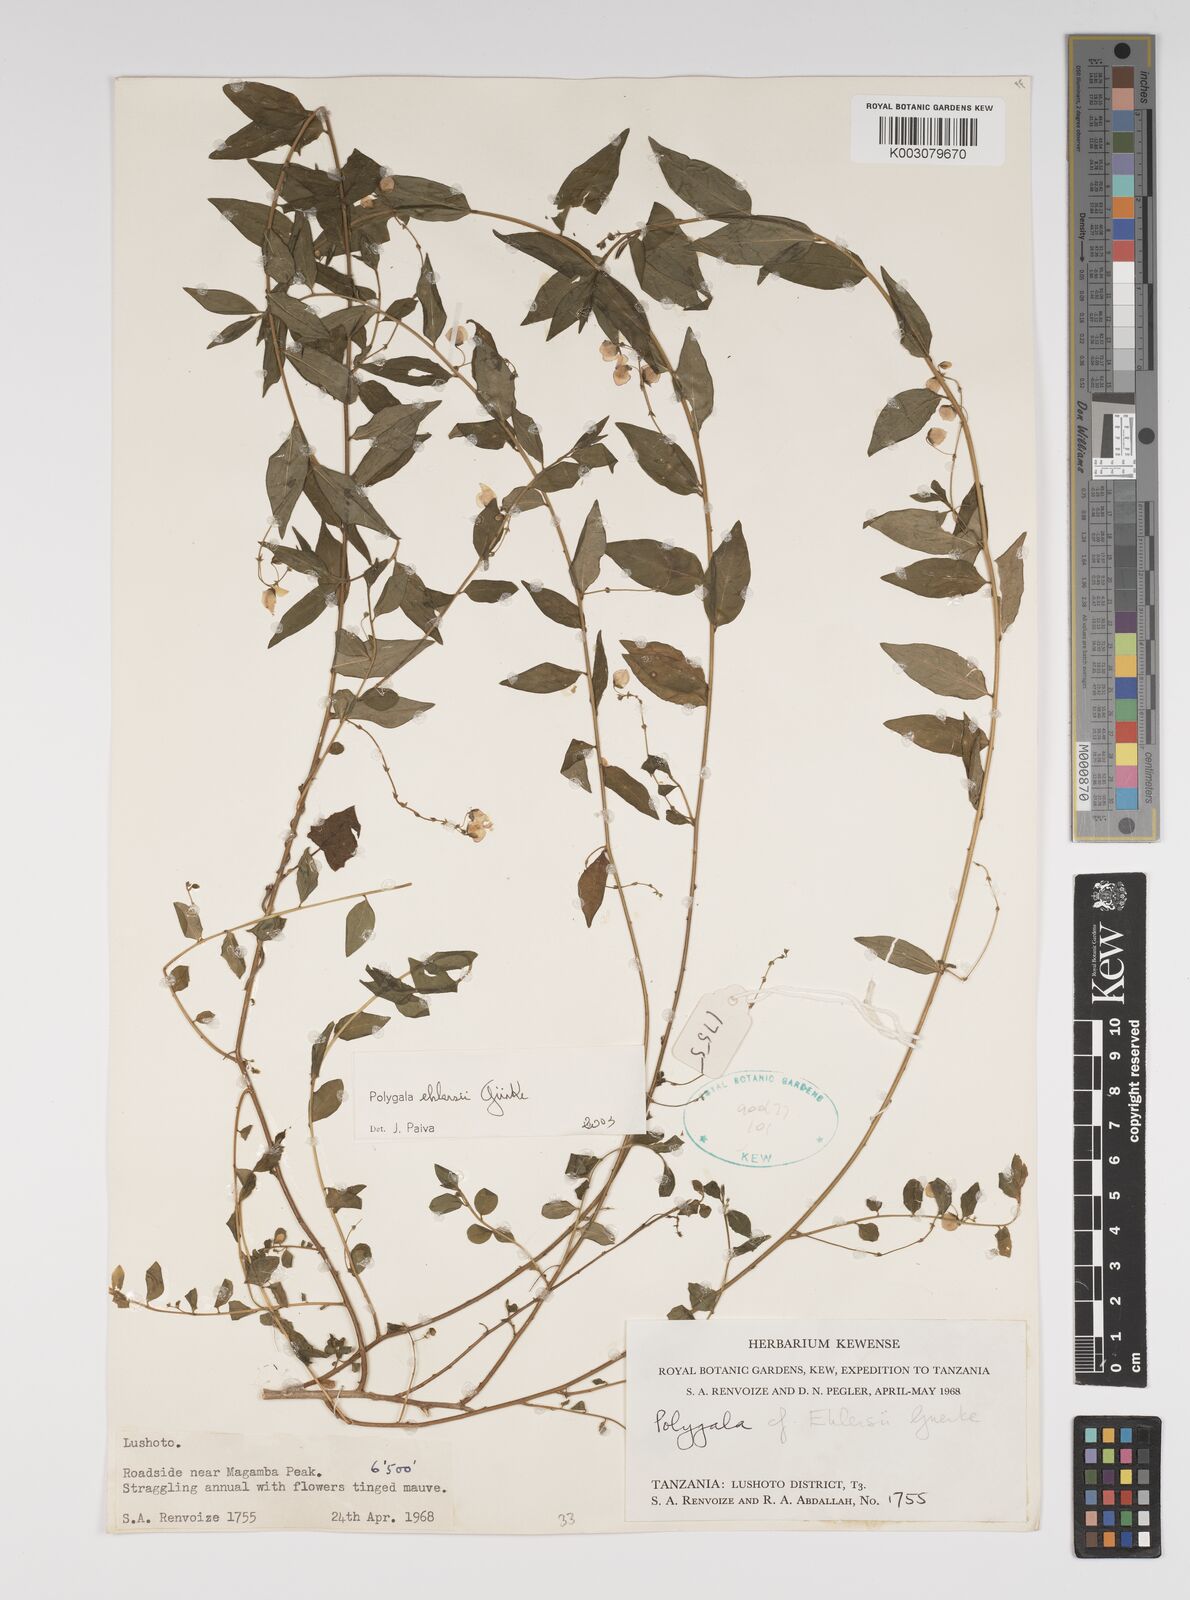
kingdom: Plantae
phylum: Tracheophyta
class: Magnoliopsida
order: Fabales
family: Polygalaceae
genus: Polygala
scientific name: Polygala ehlersii
